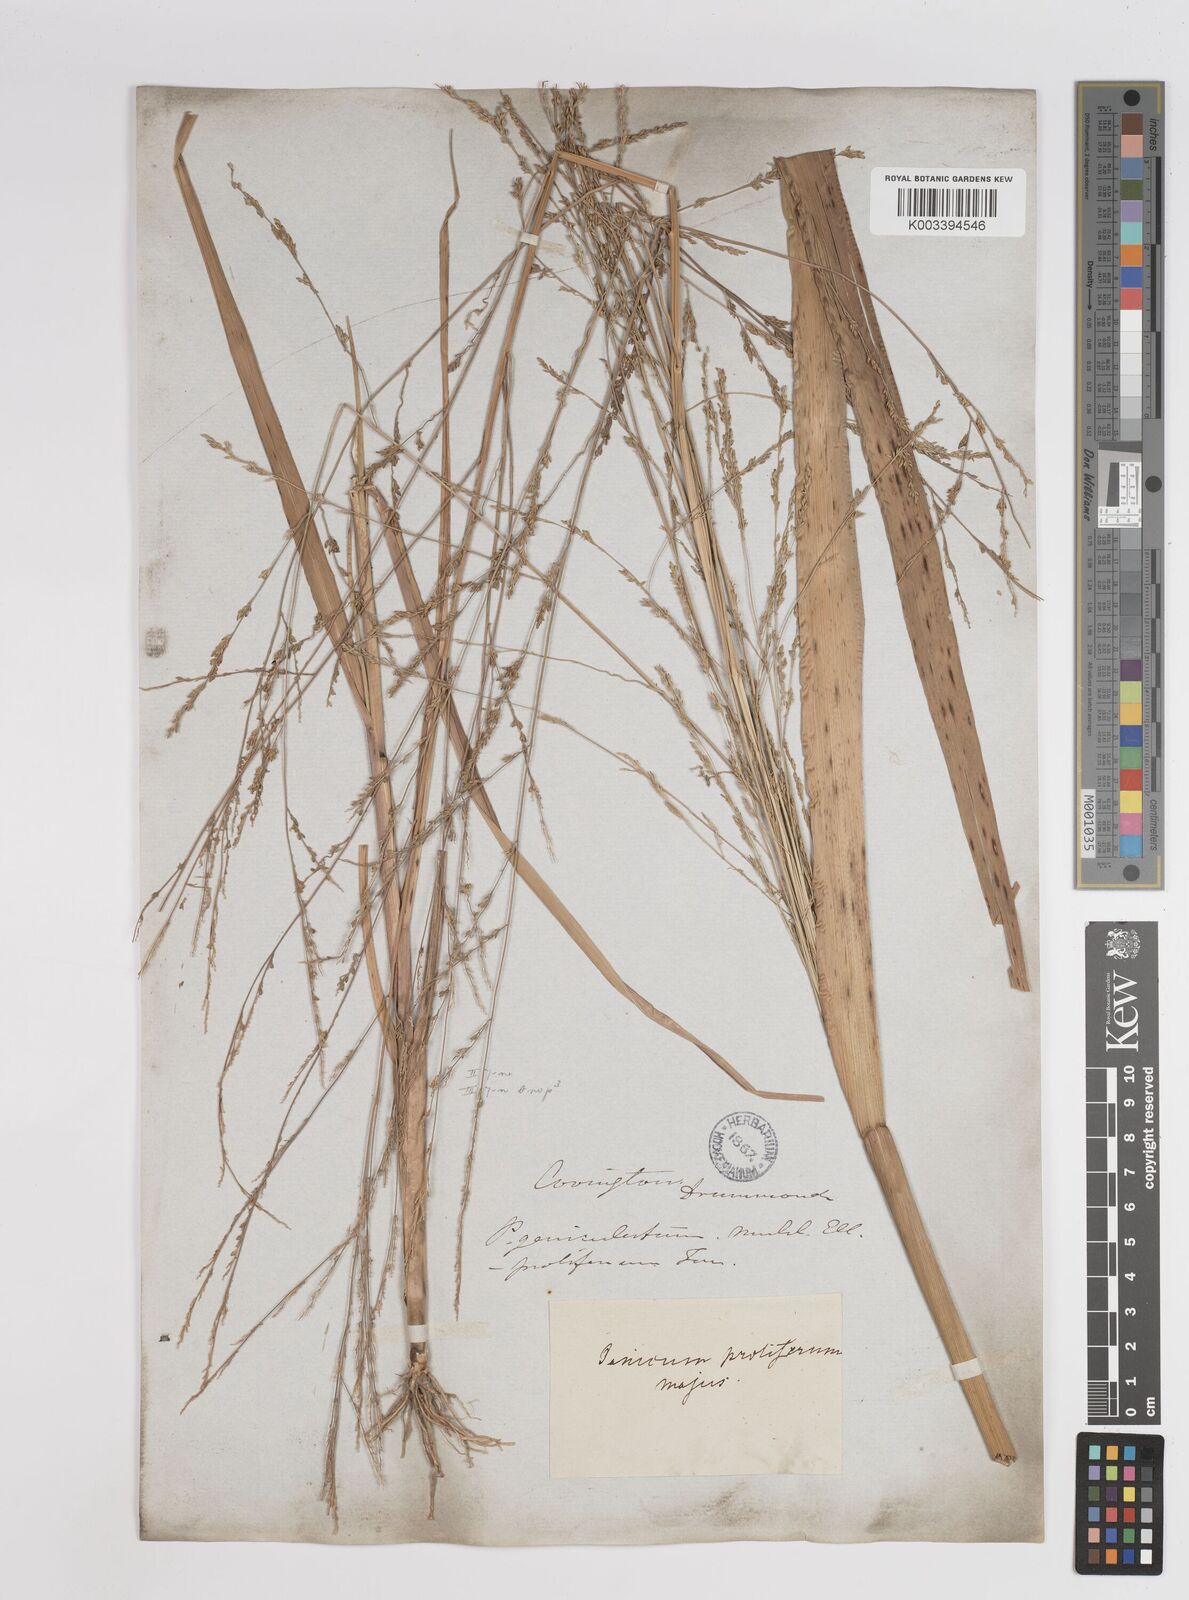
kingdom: Plantae
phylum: Tracheophyta
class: Liliopsida
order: Poales
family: Poaceae
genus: Panicum
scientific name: Panicum bartowense
